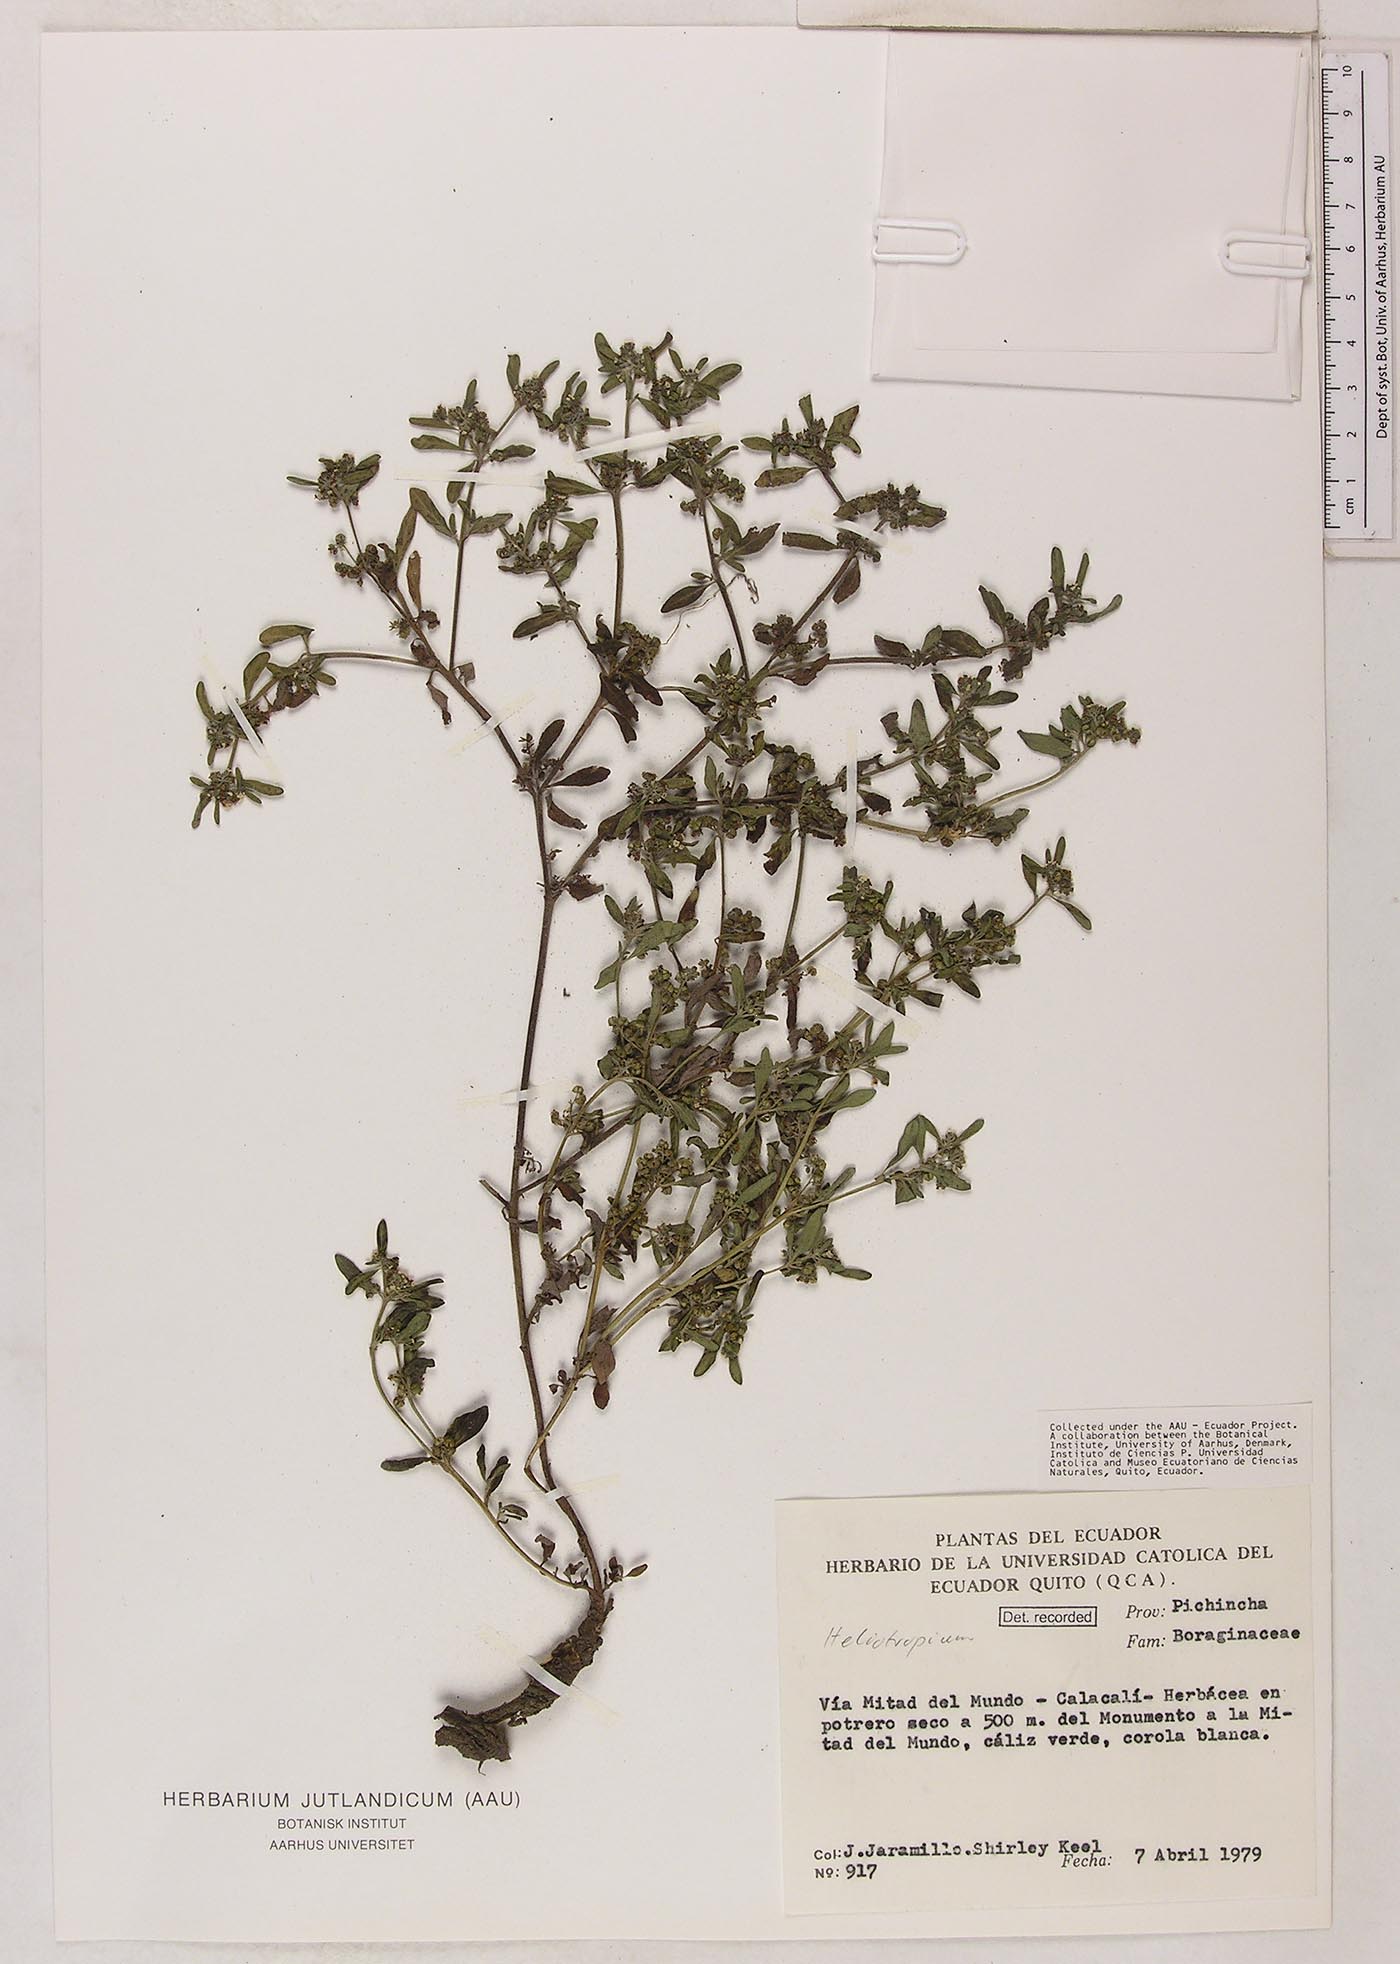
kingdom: Plantae
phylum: Tracheophyta
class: Magnoliopsida
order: Boraginales
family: Heliotropiaceae
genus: Heliotropium
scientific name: Heliotropium microstachyum
